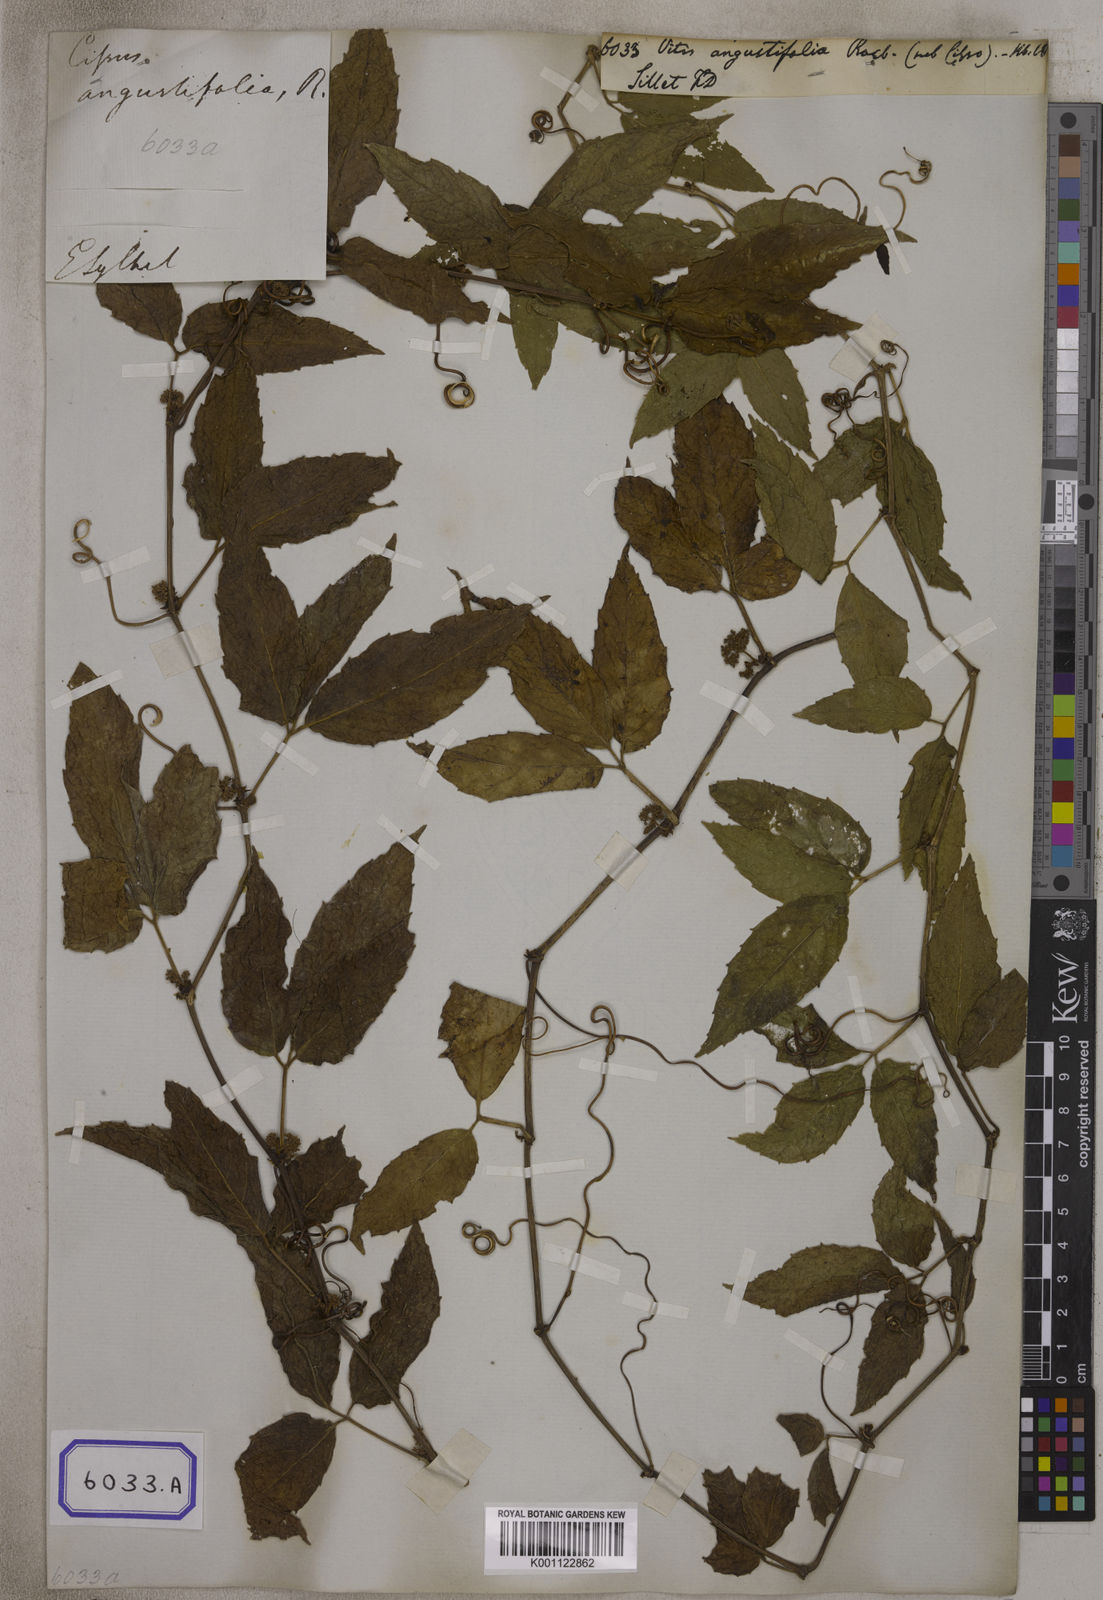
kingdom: Plantae
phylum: Tracheophyta
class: Magnoliopsida
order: Vitales
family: Vitaceae
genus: Tetrastigma
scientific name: Tetrastigma angustifolia
